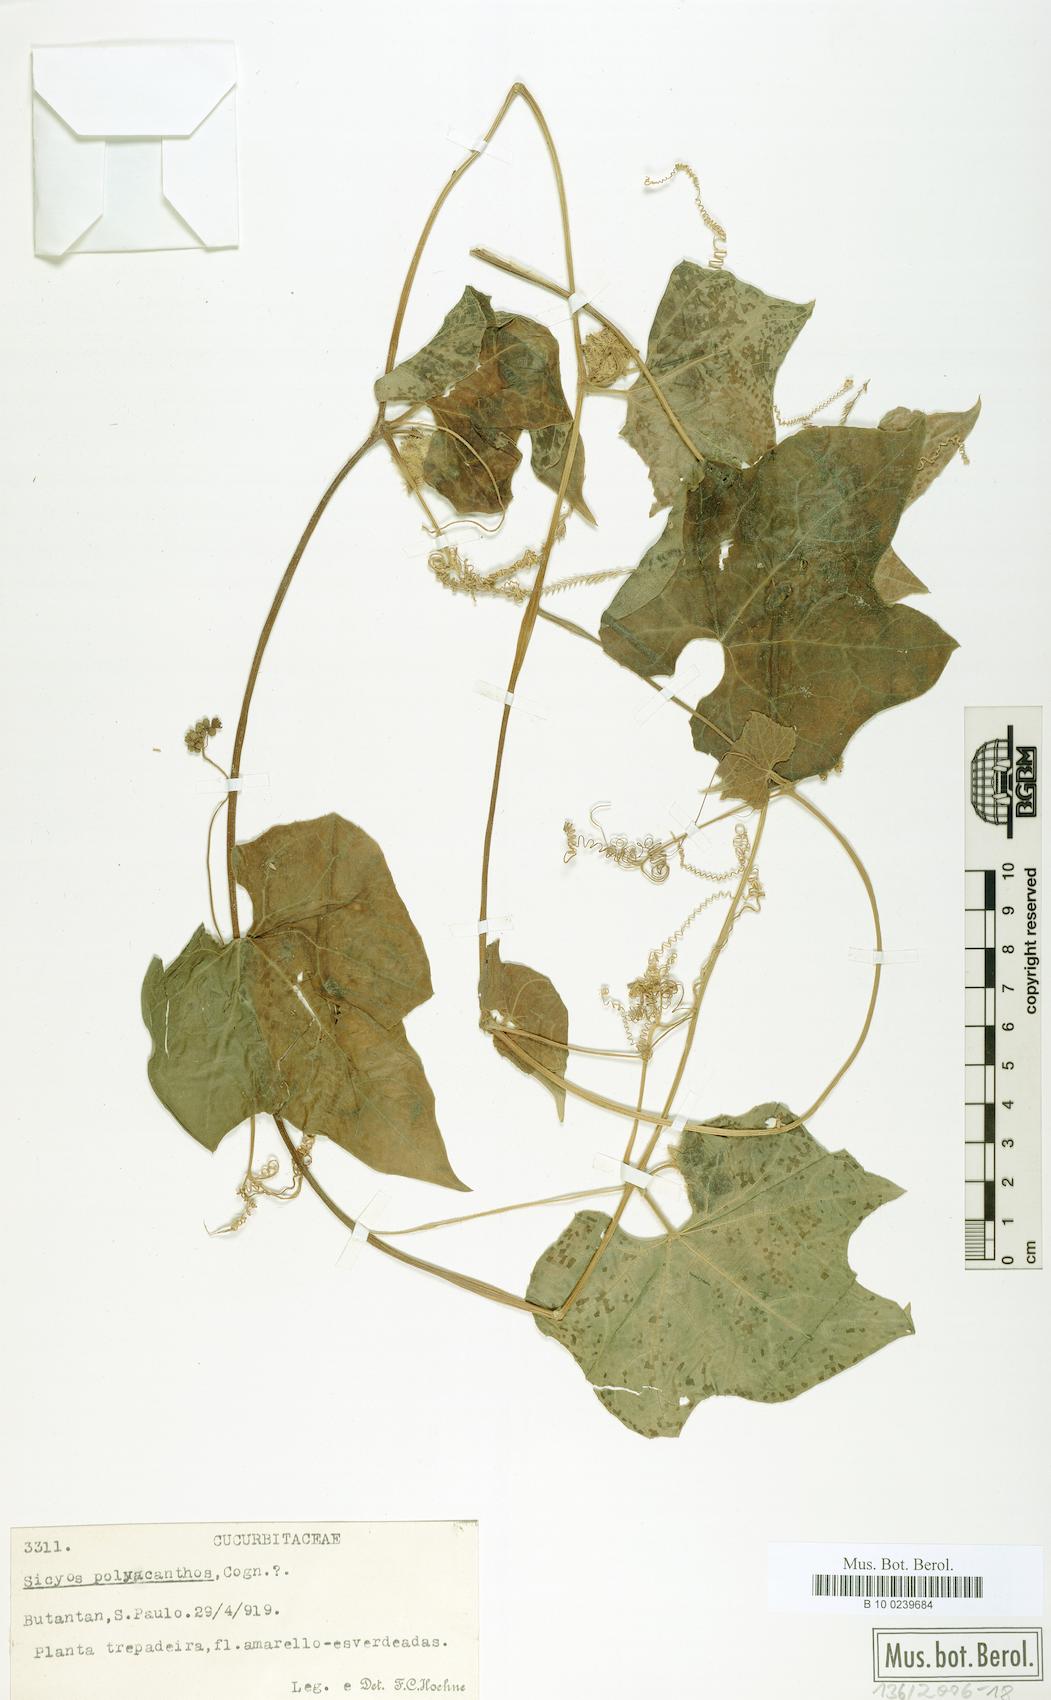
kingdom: Plantae
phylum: Tracheophyta
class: Magnoliopsida
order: Cucurbitales
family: Cucurbitaceae
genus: Sicyos
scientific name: Sicyos polyacanthos
